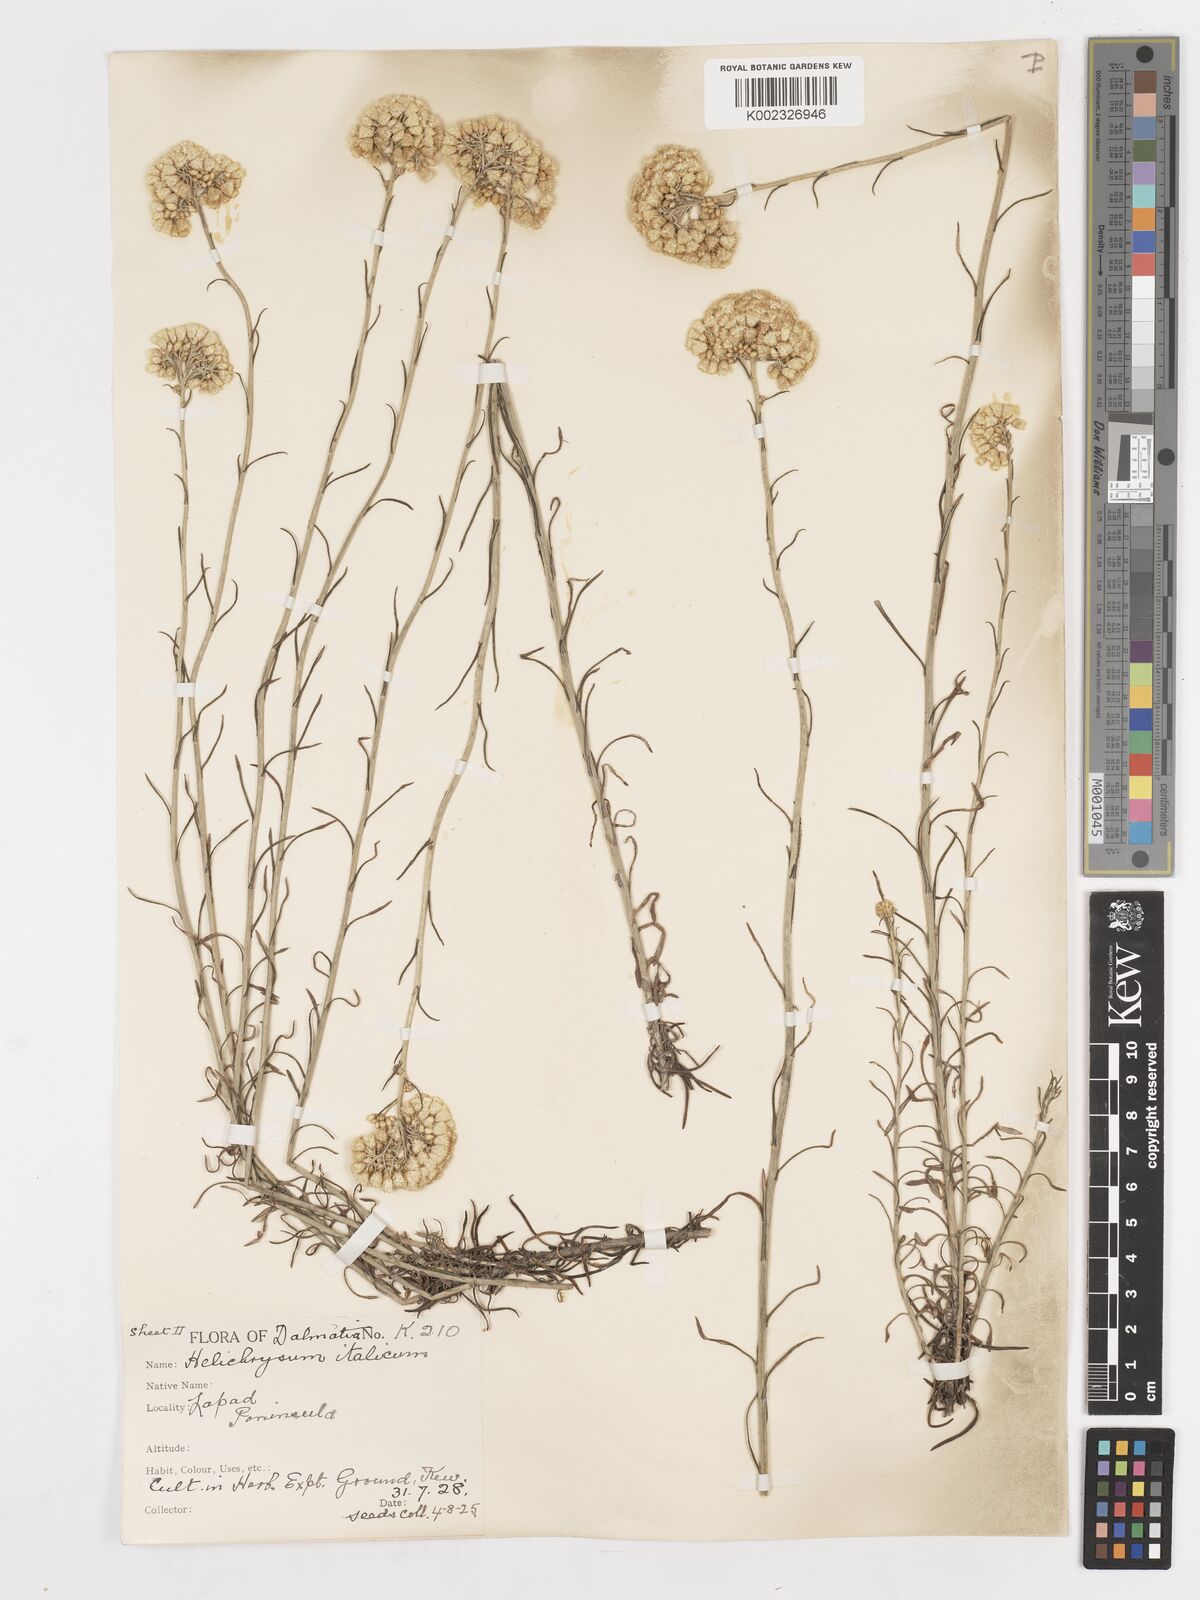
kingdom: Plantae
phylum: Tracheophyta
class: Magnoliopsida
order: Asterales
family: Asteraceae
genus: Helichrysum
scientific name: Helichrysum italicum
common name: Curryplant
